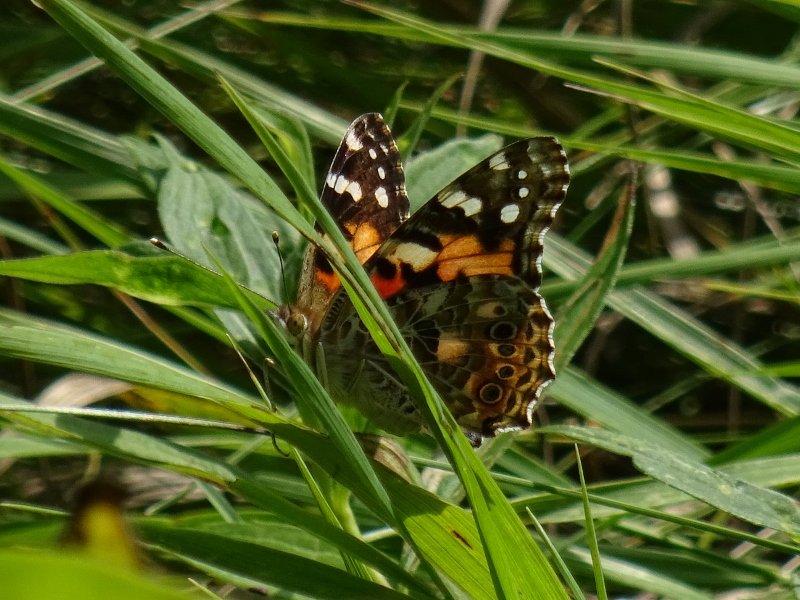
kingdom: Animalia
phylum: Arthropoda
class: Insecta
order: Lepidoptera
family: Nymphalidae
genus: Vanessa
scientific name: Vanessa cardui
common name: Painted Lady
